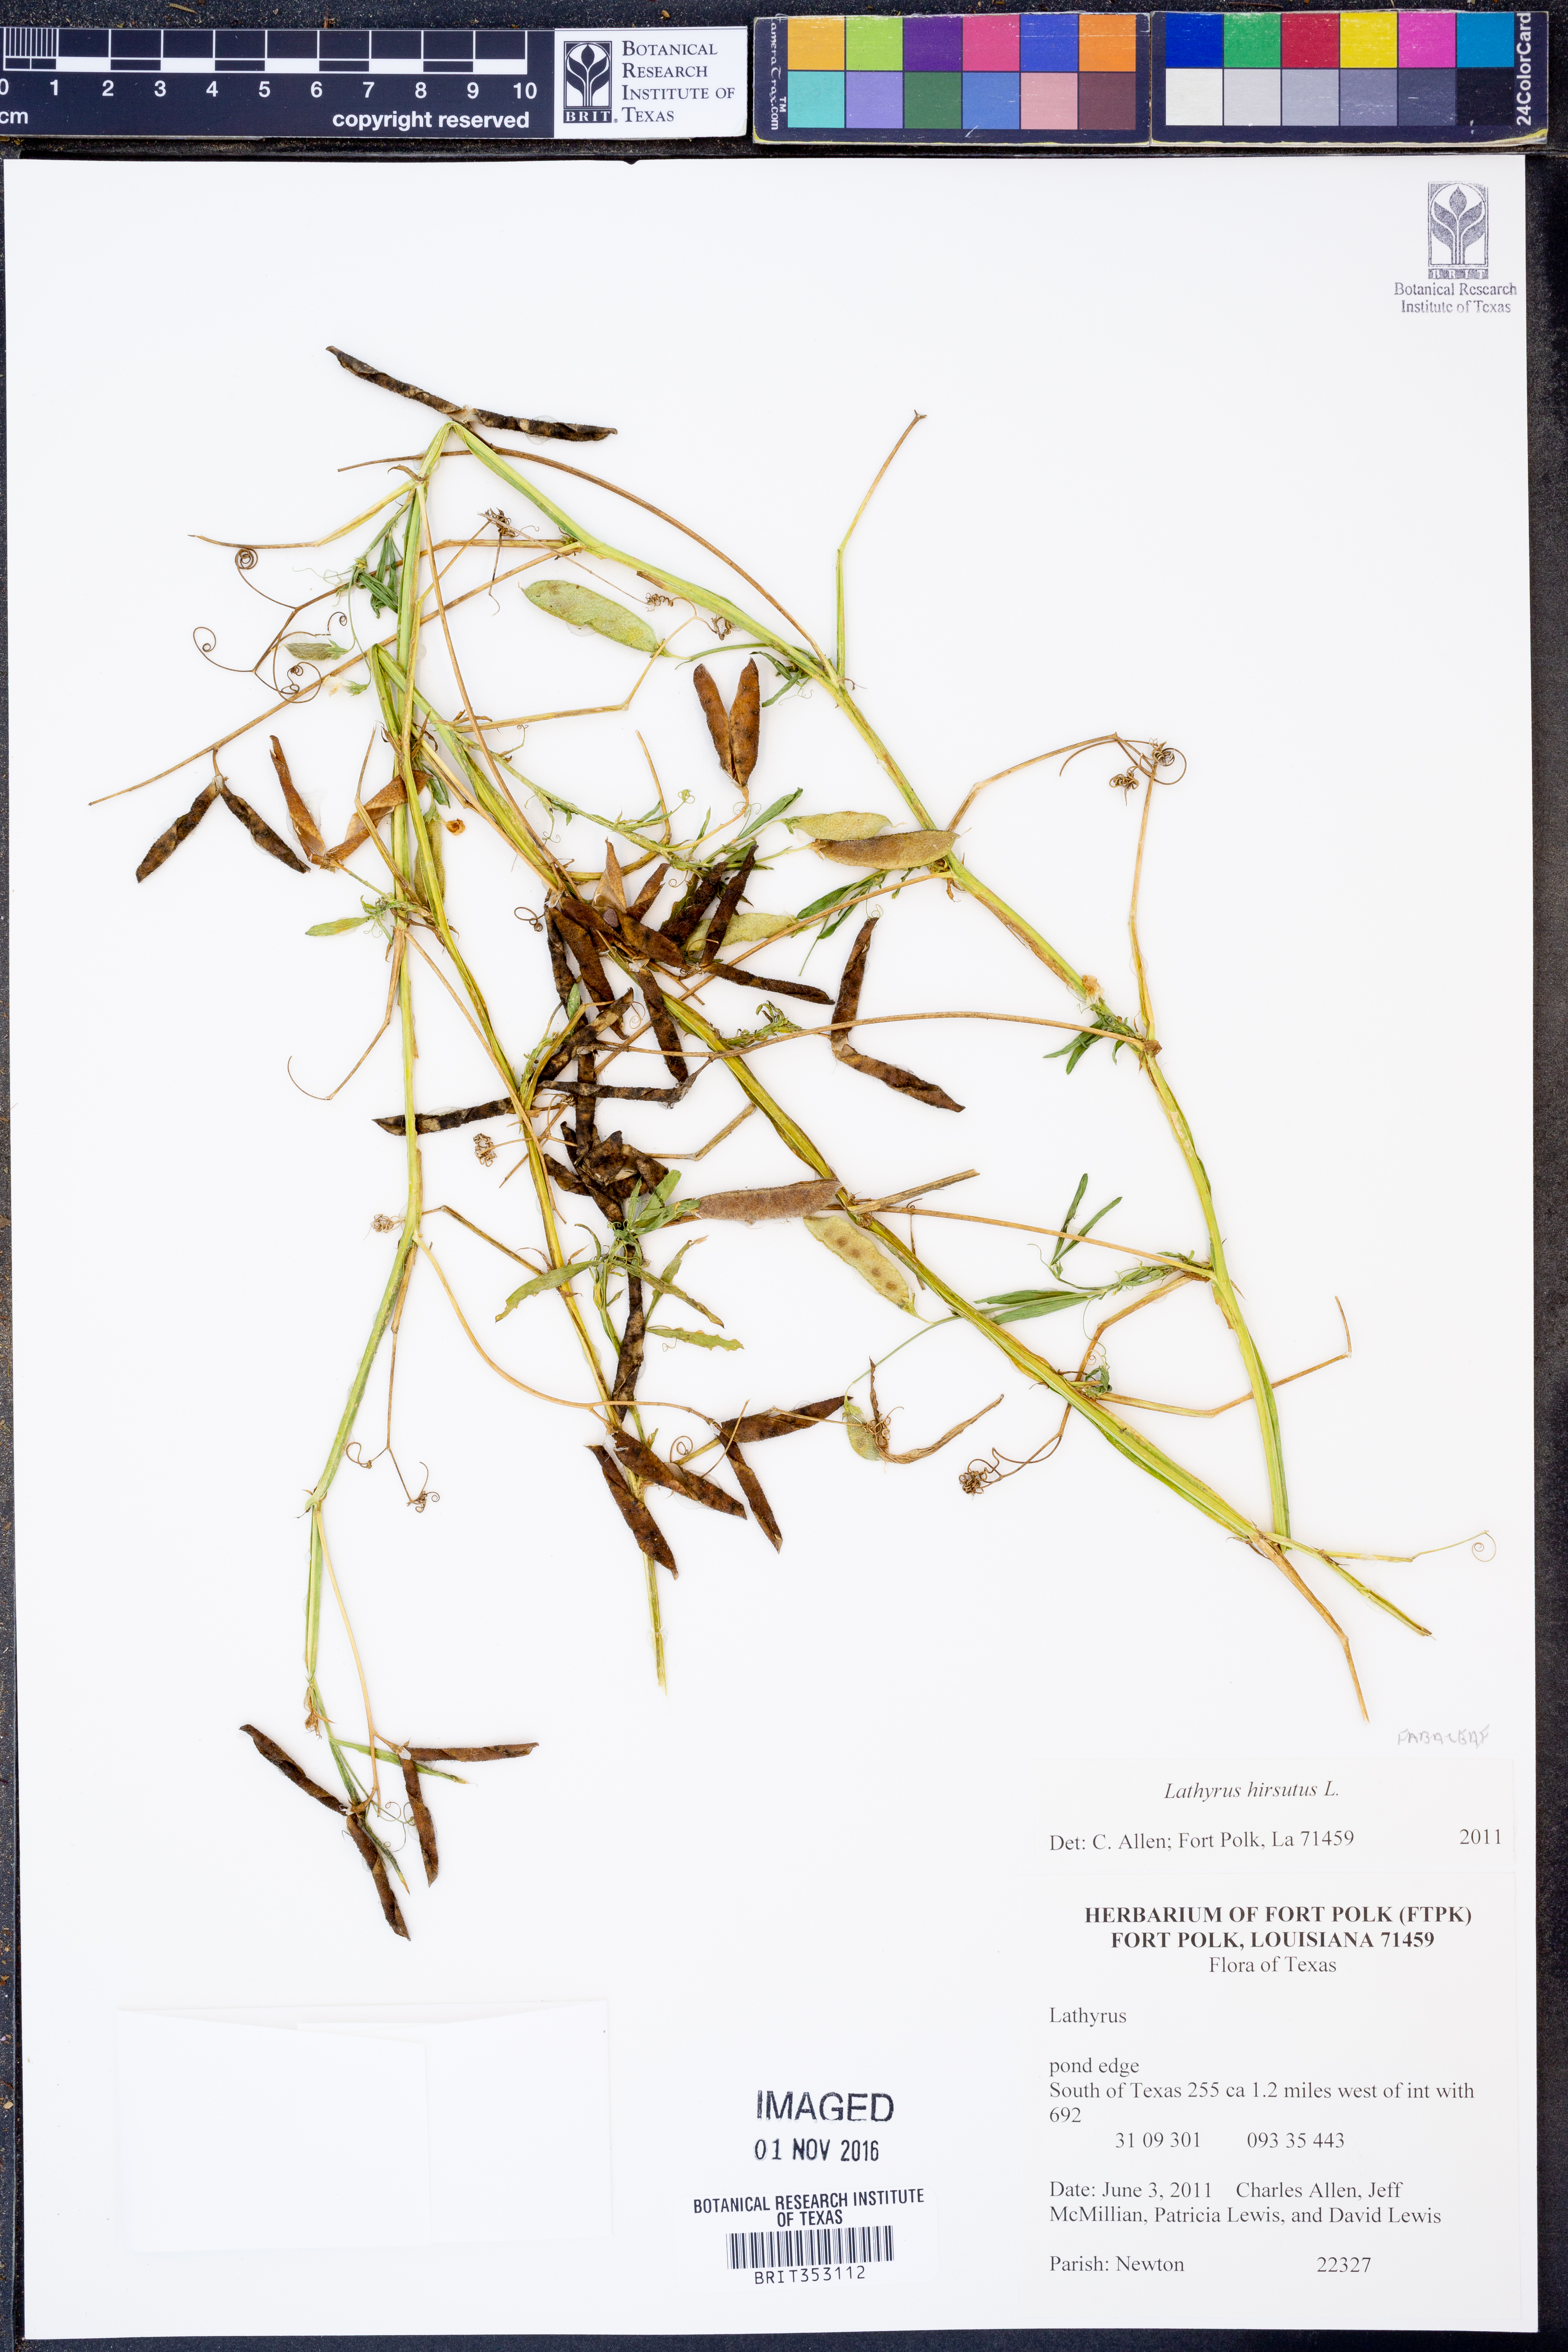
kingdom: Plantae
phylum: Tracheophyta
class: Magnoliopsida
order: Fabales
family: Fabaceae
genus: Lathyrus
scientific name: Lathyrus hirsutus
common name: Hairy vetchling
